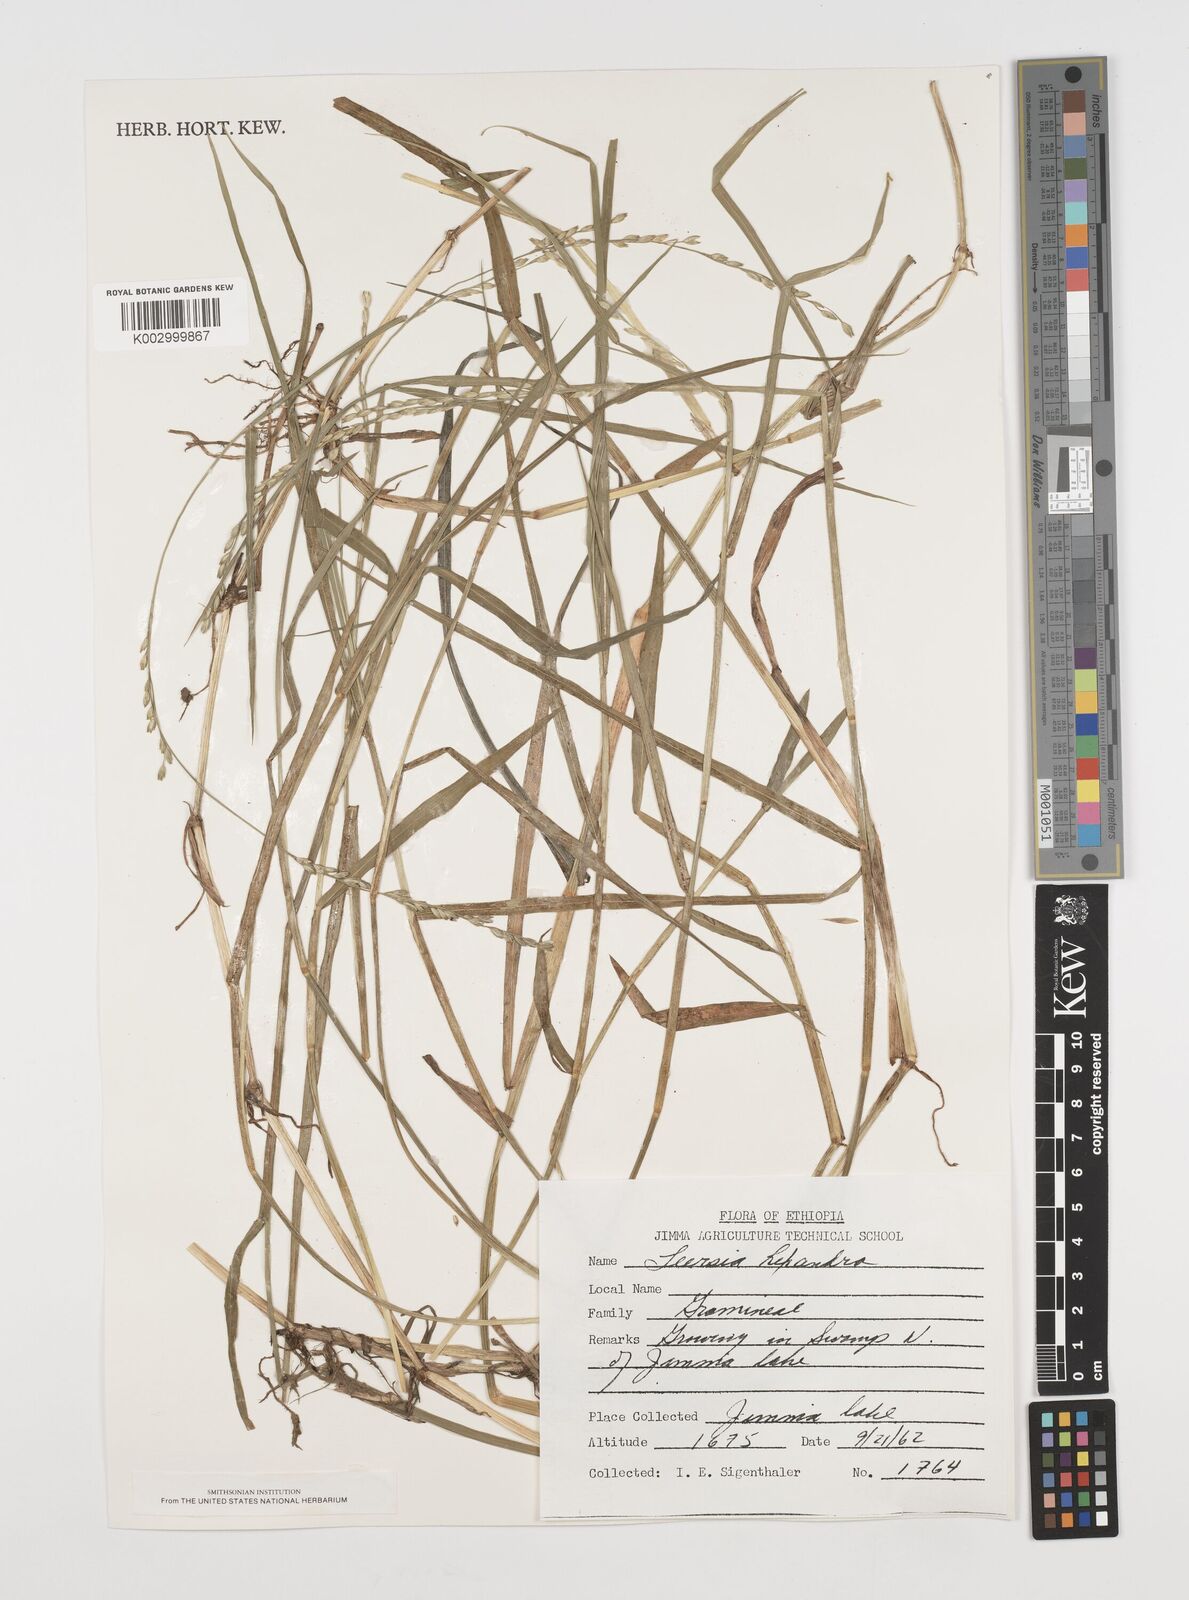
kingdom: Plantae
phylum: Tracheophyta
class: Liliopsida
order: Poales
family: Poaceae
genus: Leersia
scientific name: Leersia hexandra
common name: Southern cut grass
